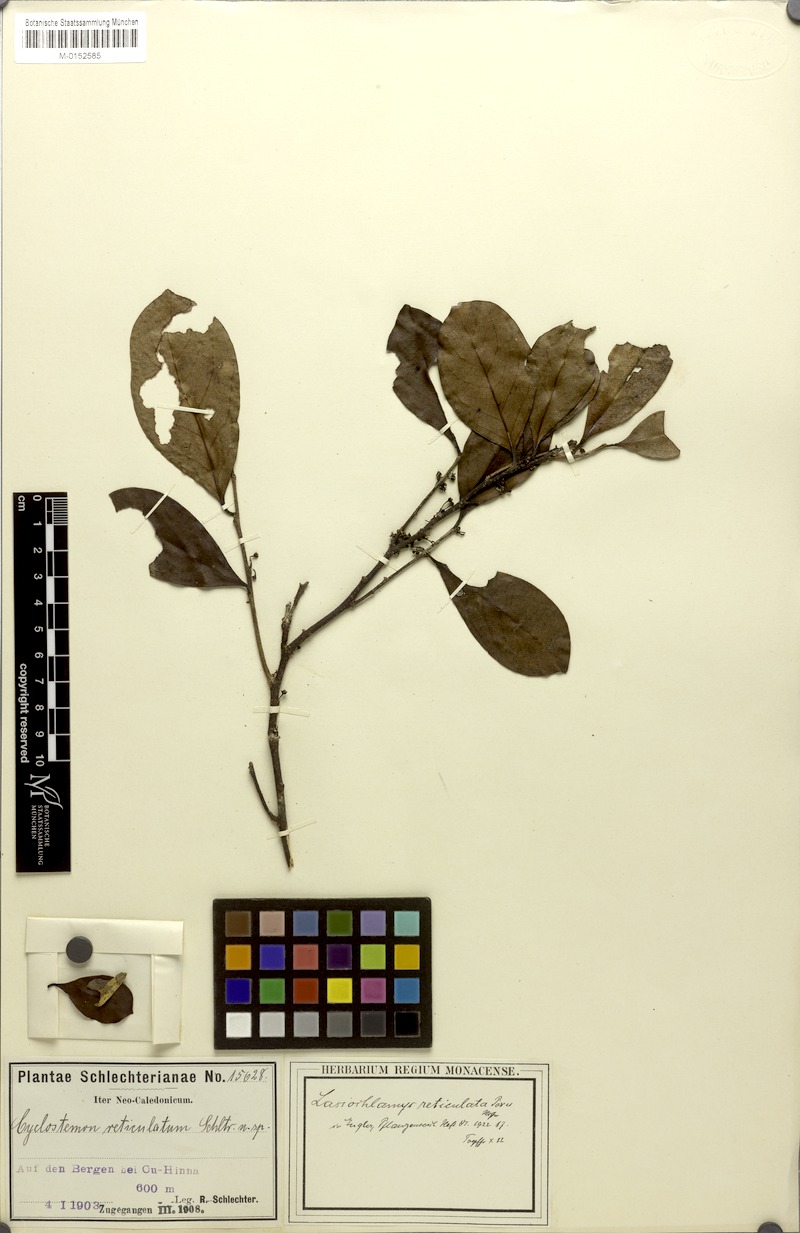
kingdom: Plantae
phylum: Tracheophyta
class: Magnoliopsida
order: Malpighiales
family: Salicaceae
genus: Lasiochlamys
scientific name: Lasiochlamys reticulata
